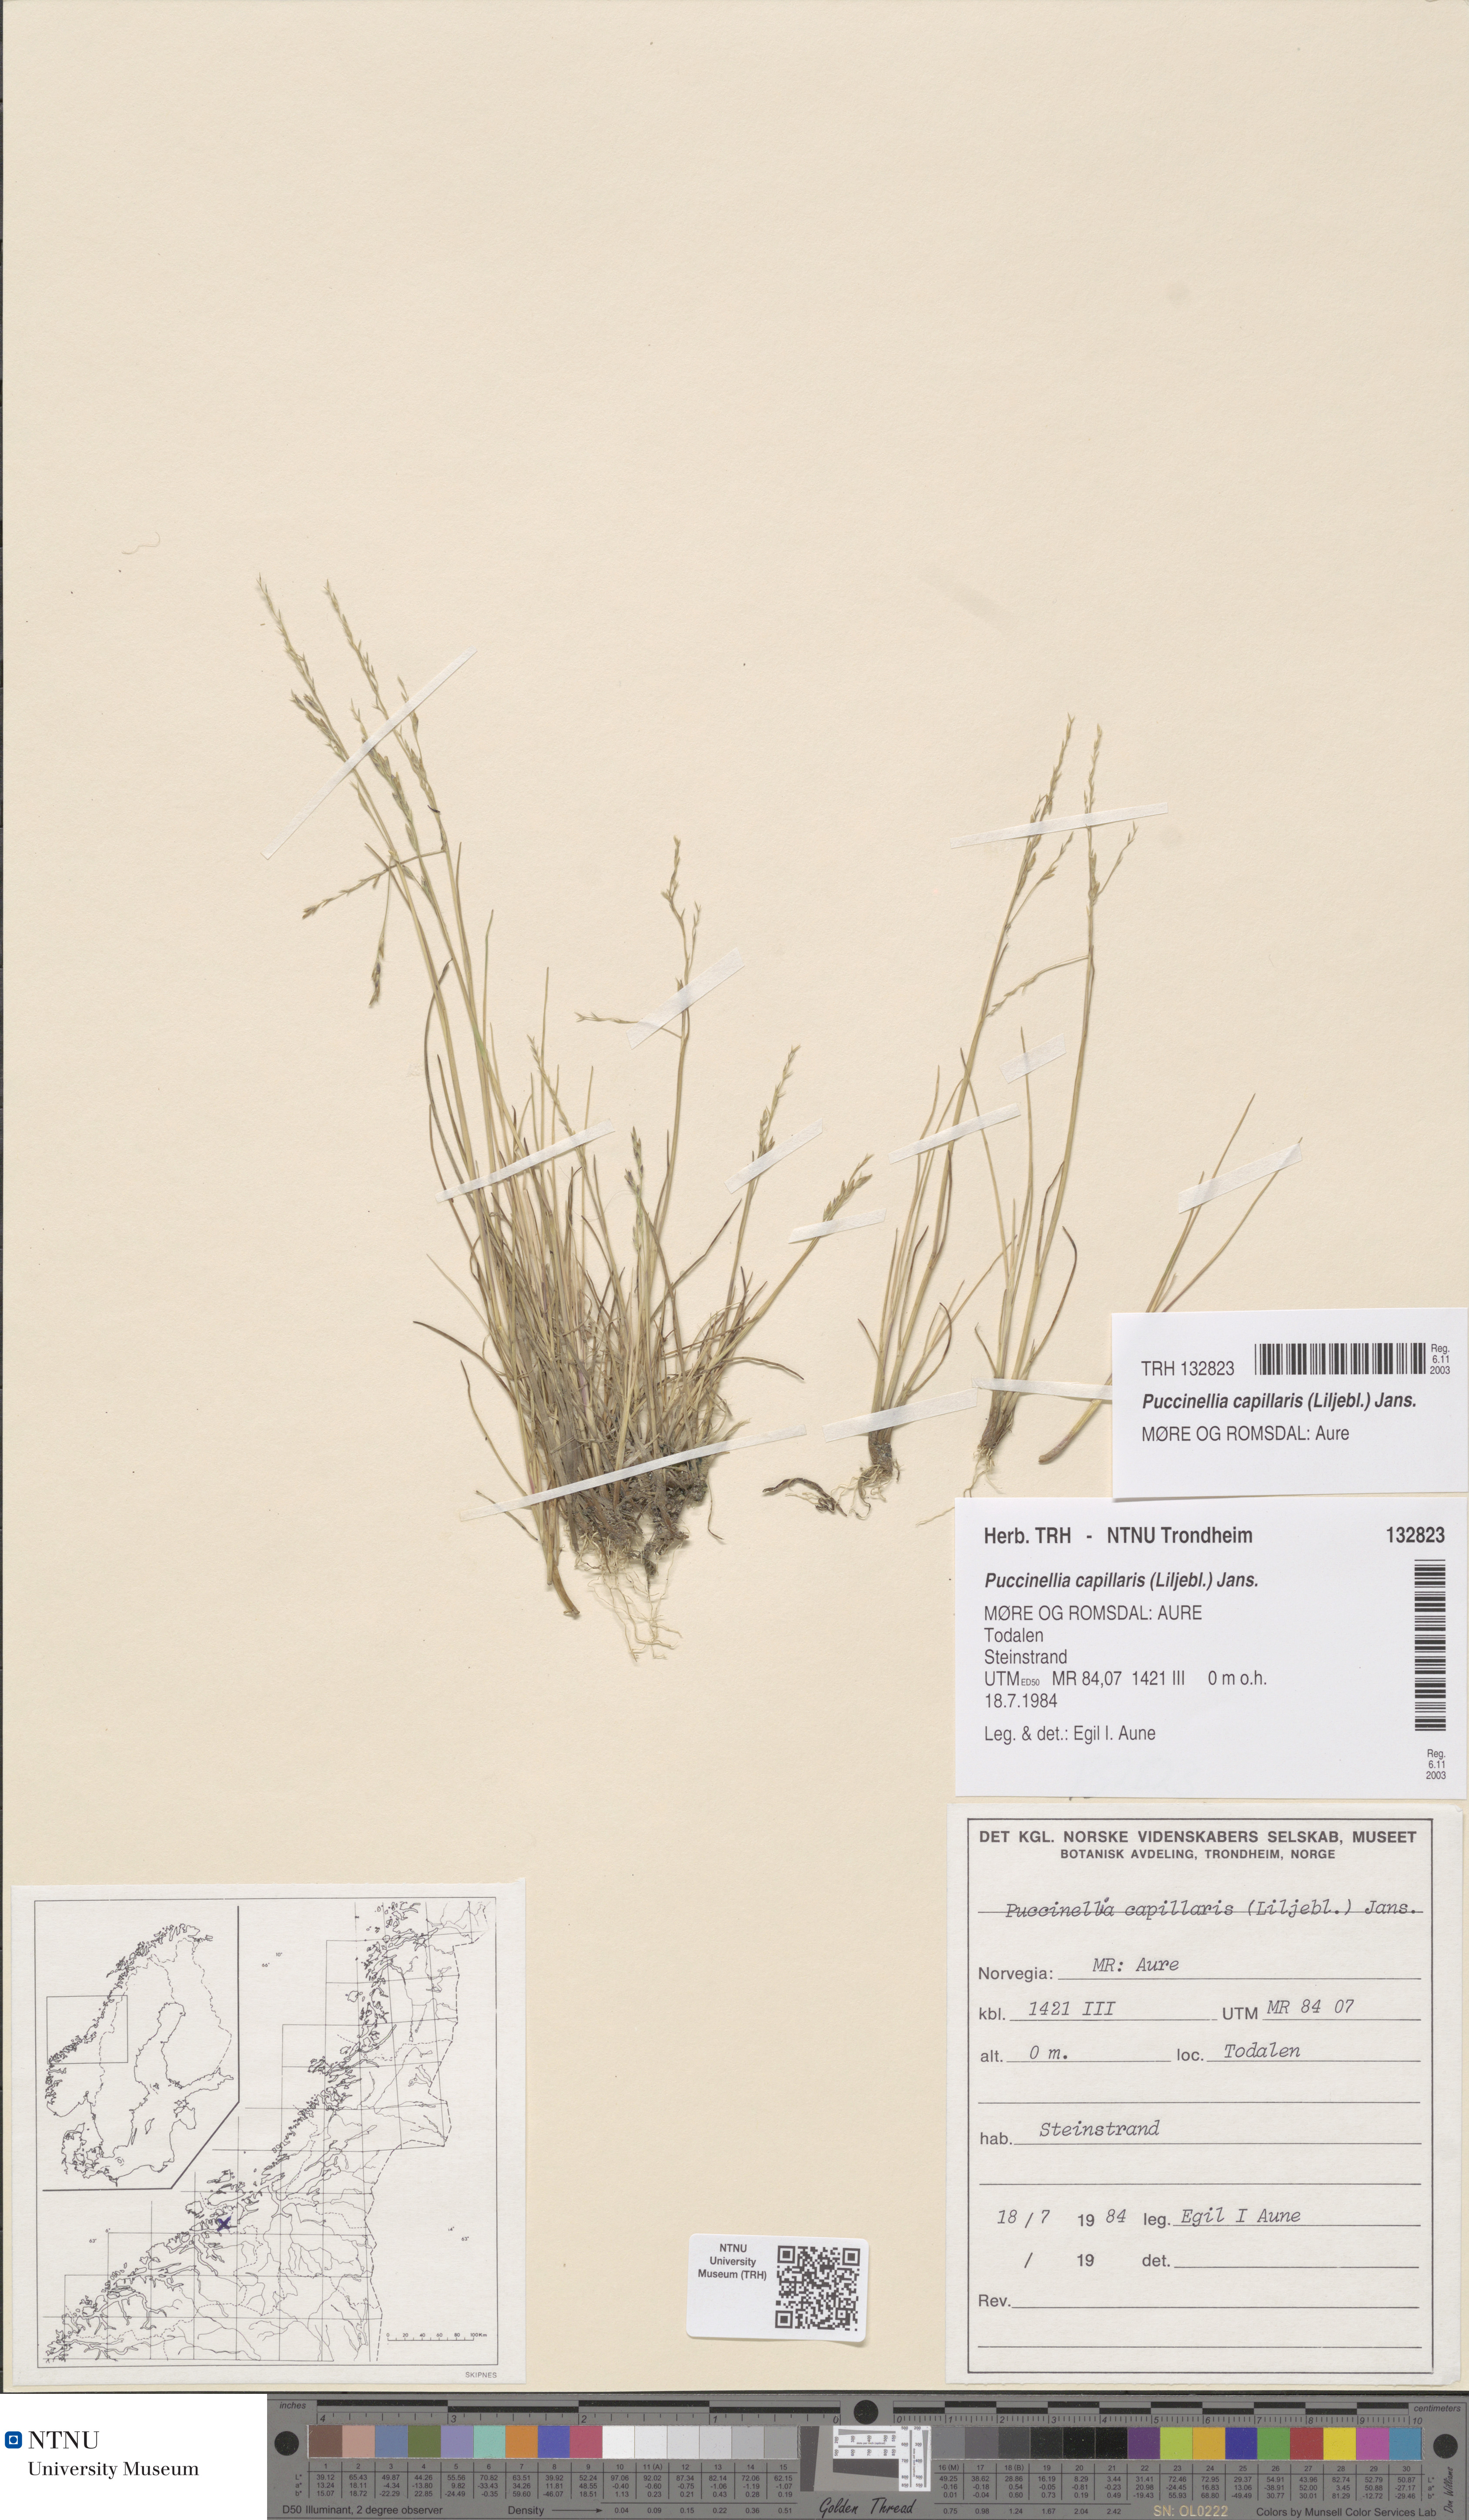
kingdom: Plantae
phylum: Tracheophyta
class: Liliopsida
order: Poales
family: Poaceae
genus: Puccinellia
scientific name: Puccinellia distans
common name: Weeping alkaligrass
